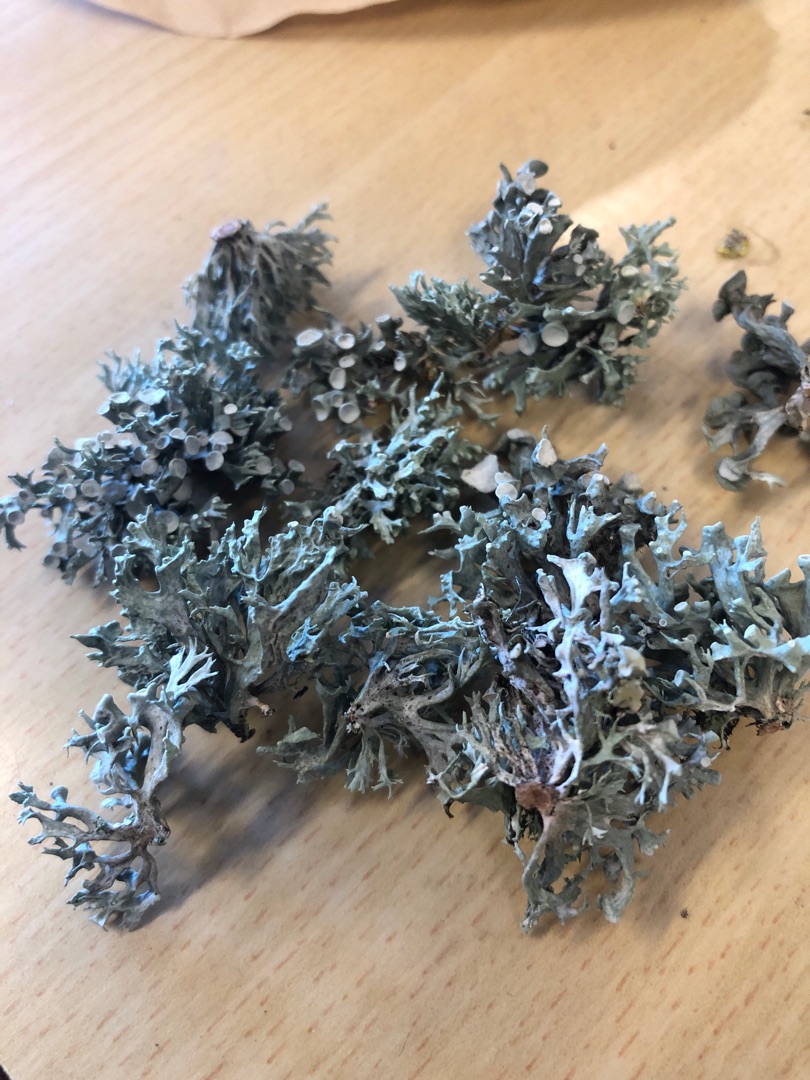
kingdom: Fungi
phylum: Ascomycota
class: Lecanoromycetes
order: Lecanorales
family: Ramalinaceae
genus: Ramalina
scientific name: Ramalina fastigiata
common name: Tue-grenlav
